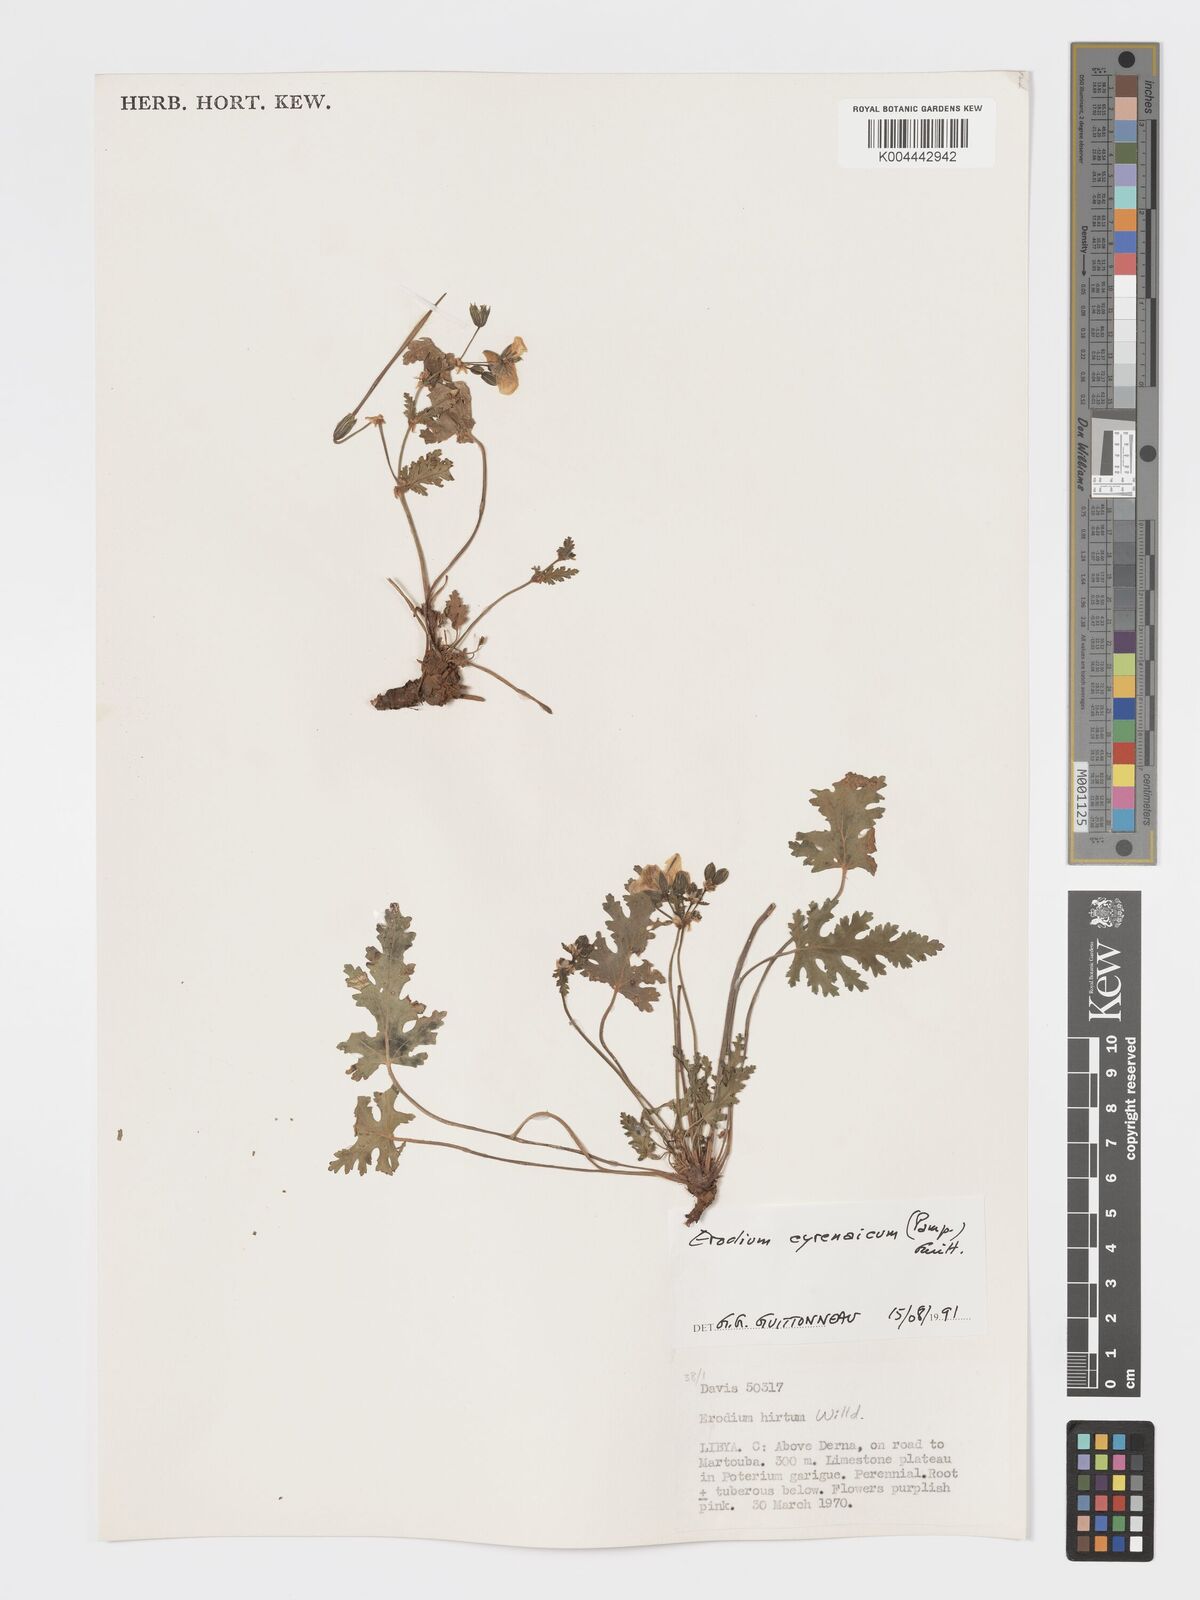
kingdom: Plantae
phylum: Tracheophyta
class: Magnoliopsida
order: Geraniales
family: Geraniaceae
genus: Erodium
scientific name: Erodium cyrenaicum
